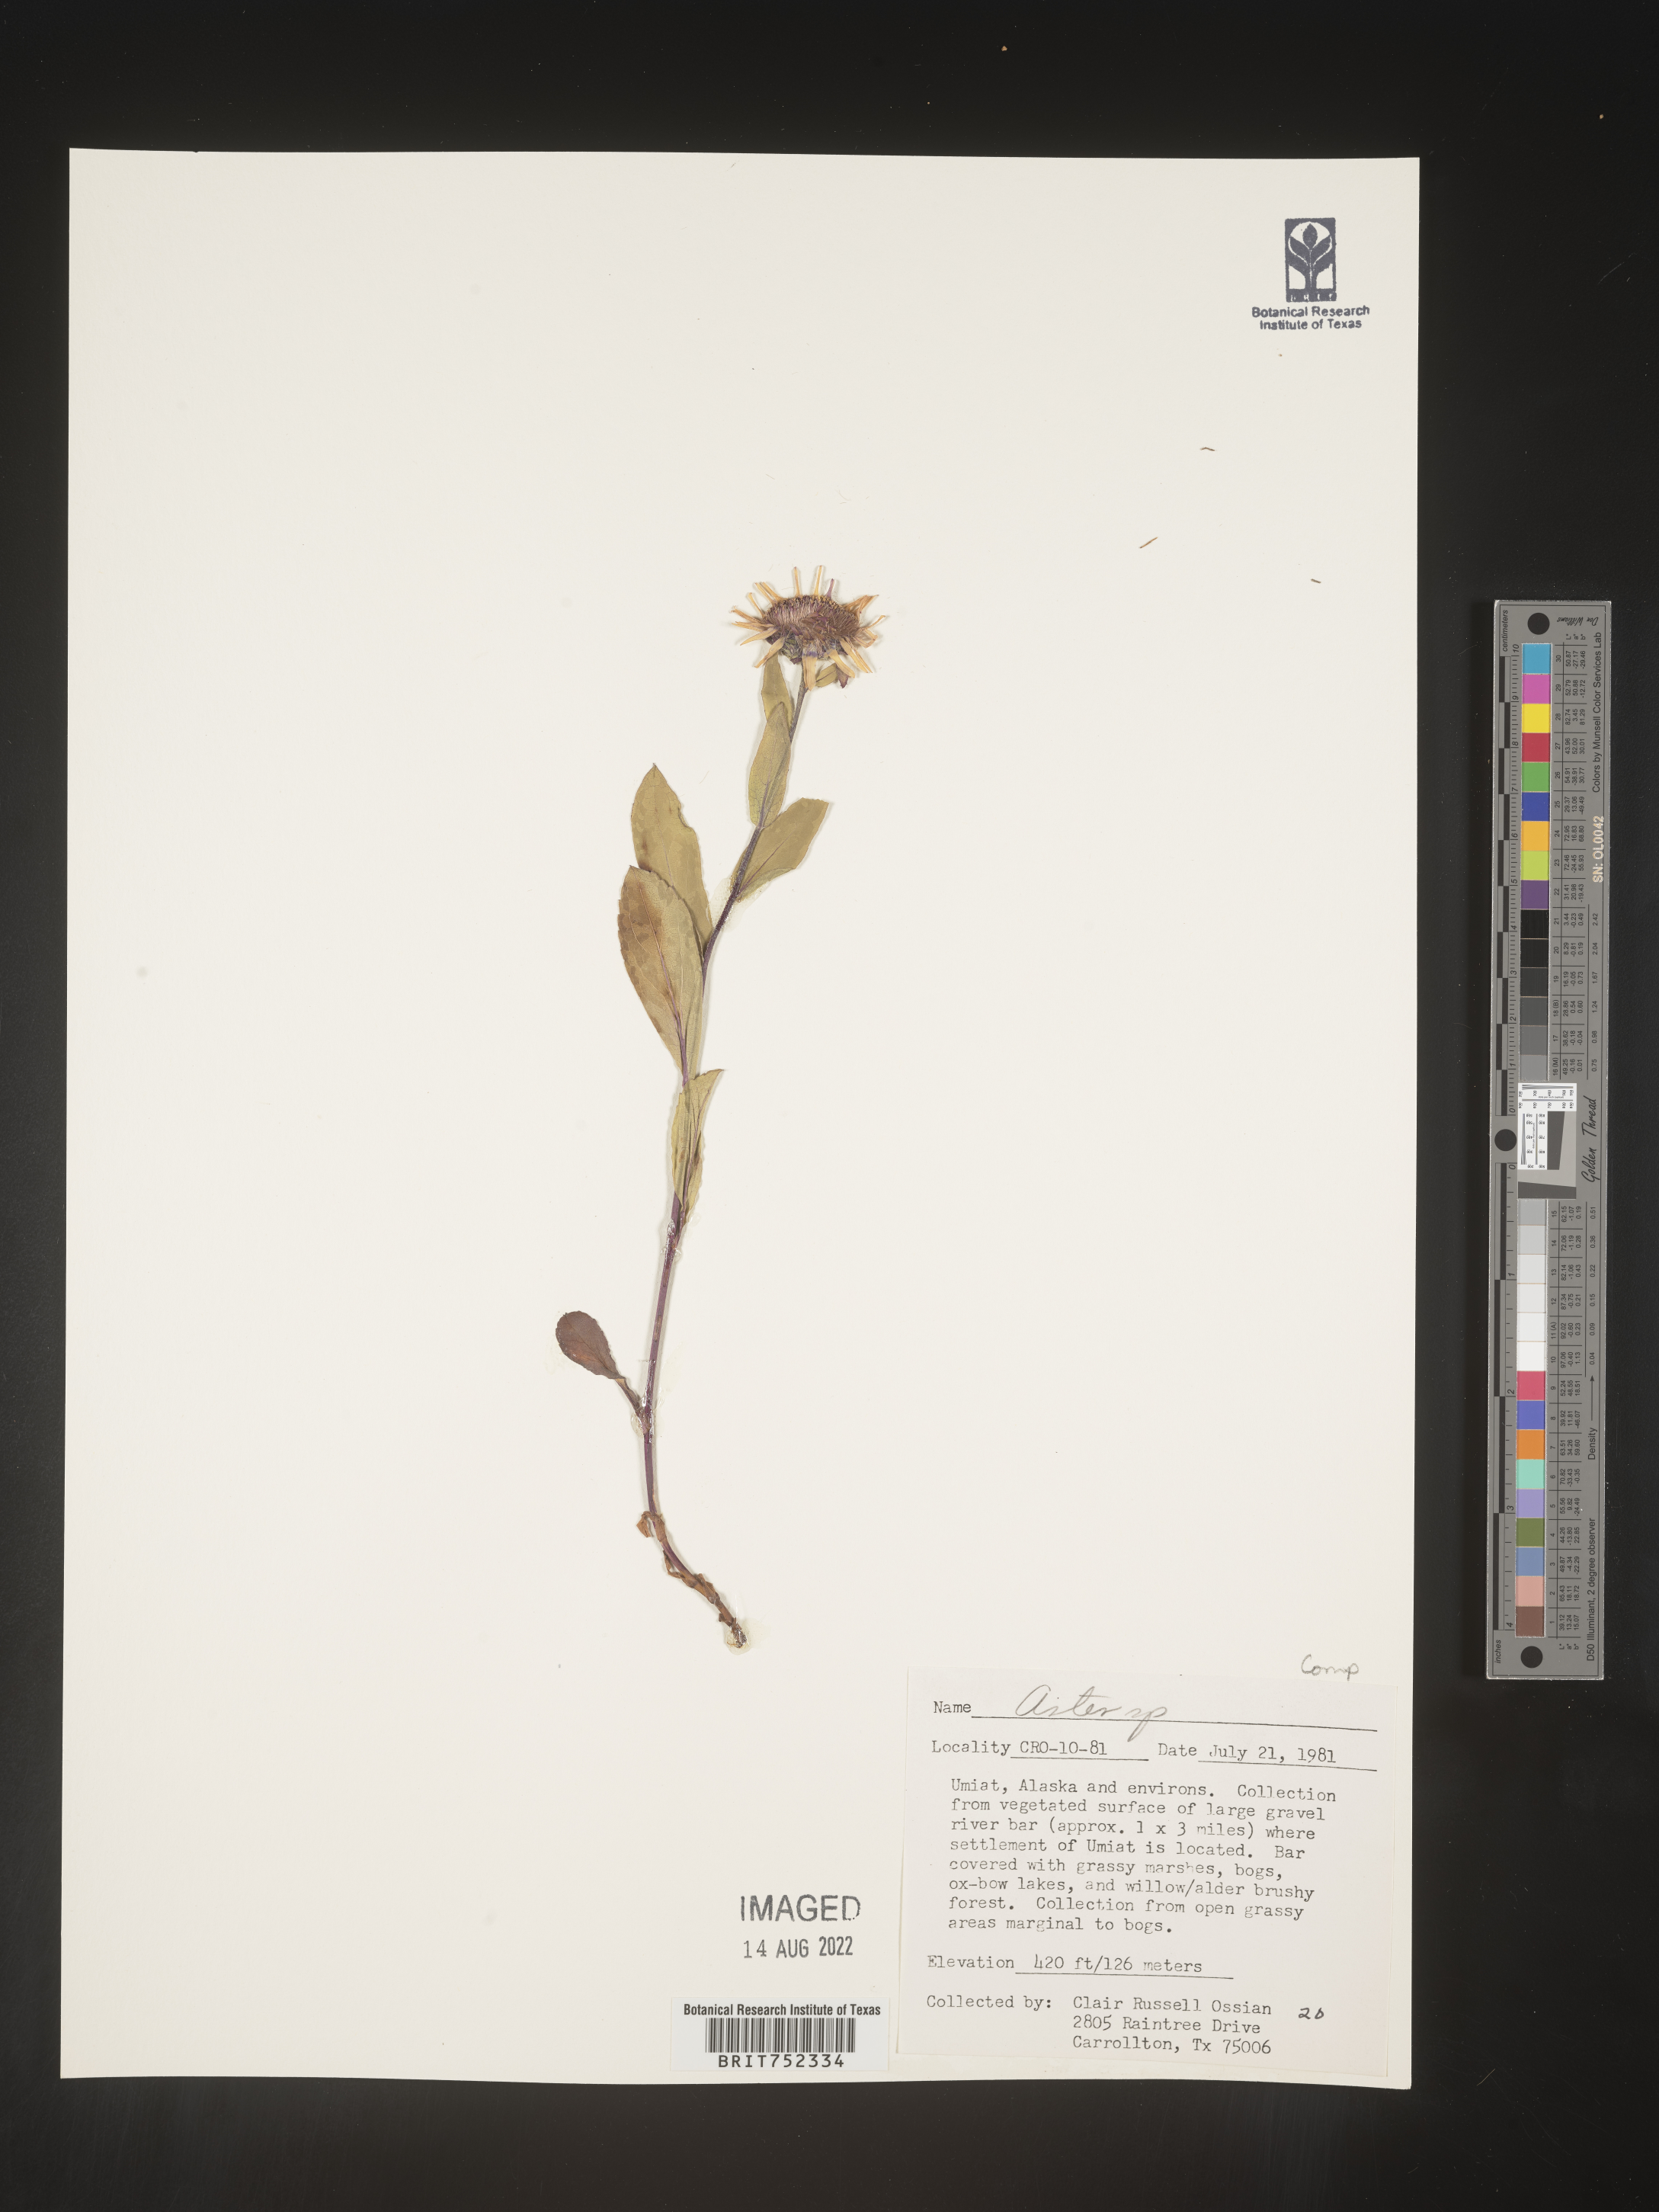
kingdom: Plantae
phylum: Tracheophyta
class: Magnoliopsida
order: Asterales
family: Asteraceae
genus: Aster
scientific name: Aster
